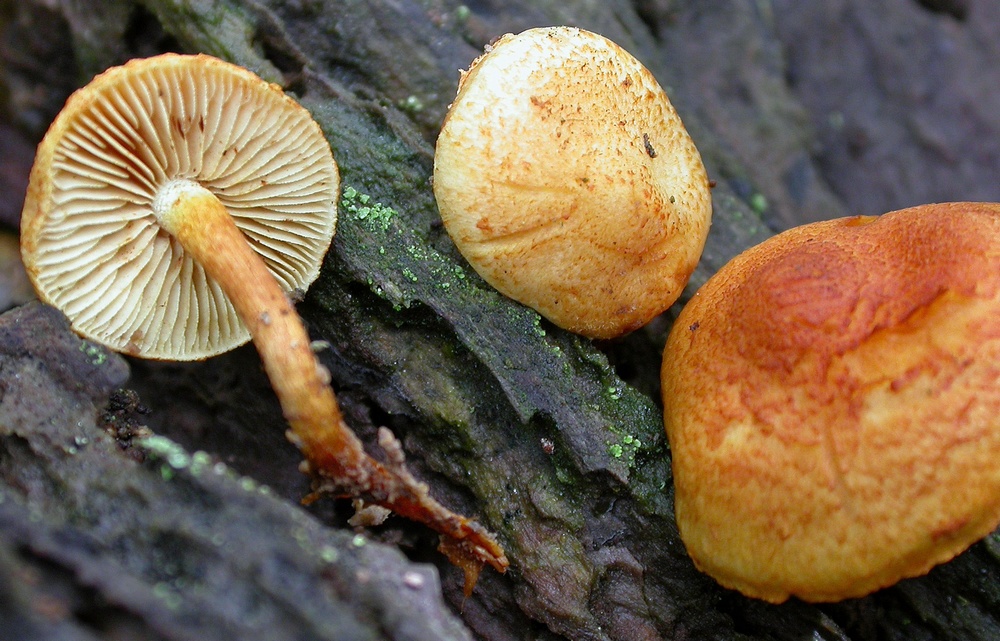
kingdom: Fungi
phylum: Basidiomycota
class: Agaricomycetes
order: Agaricales
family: Strophariaceae
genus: Pholiota
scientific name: Pholiota tuberculosa
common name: finskællet skælhat
